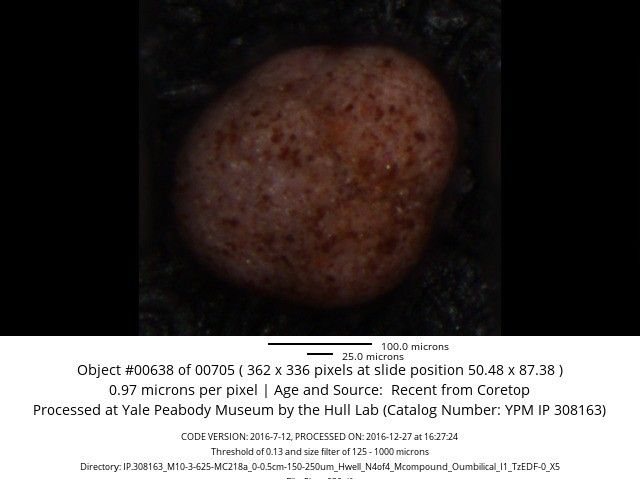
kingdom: Chromista
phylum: Foraminifera
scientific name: Foraminifera
